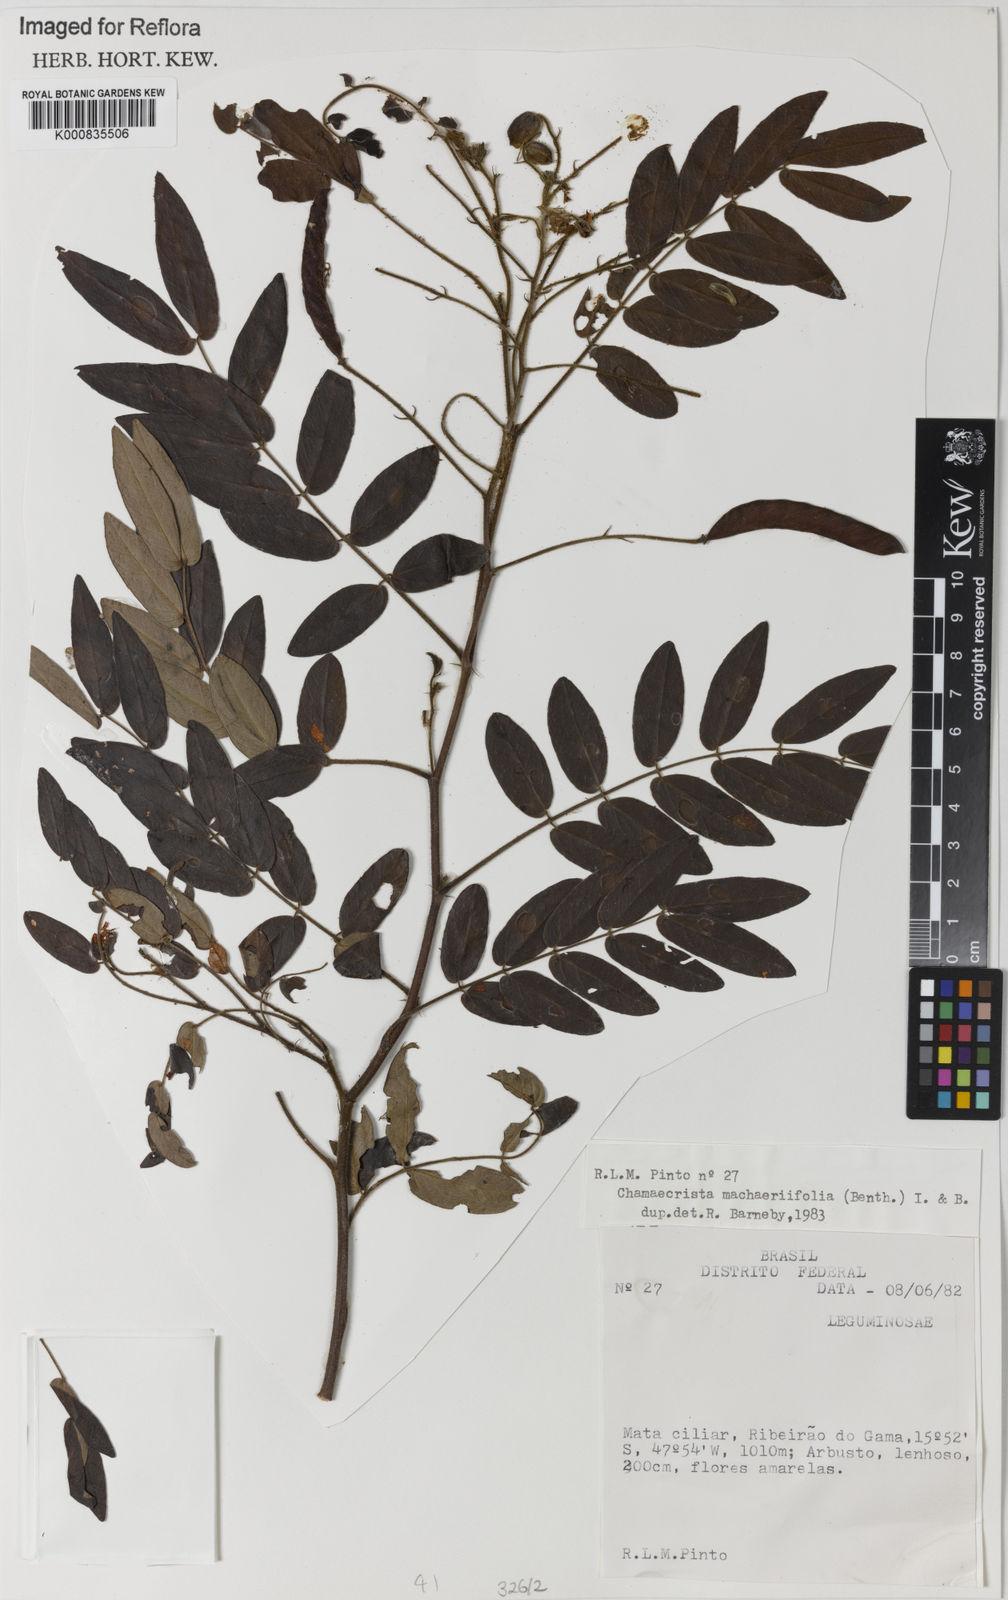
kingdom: Plantae
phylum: Tracheophyta
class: Magnoliopsida
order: Fabales
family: Fabaceae
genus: Chamaecrista
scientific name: Chamaecrista machaeriifolia
